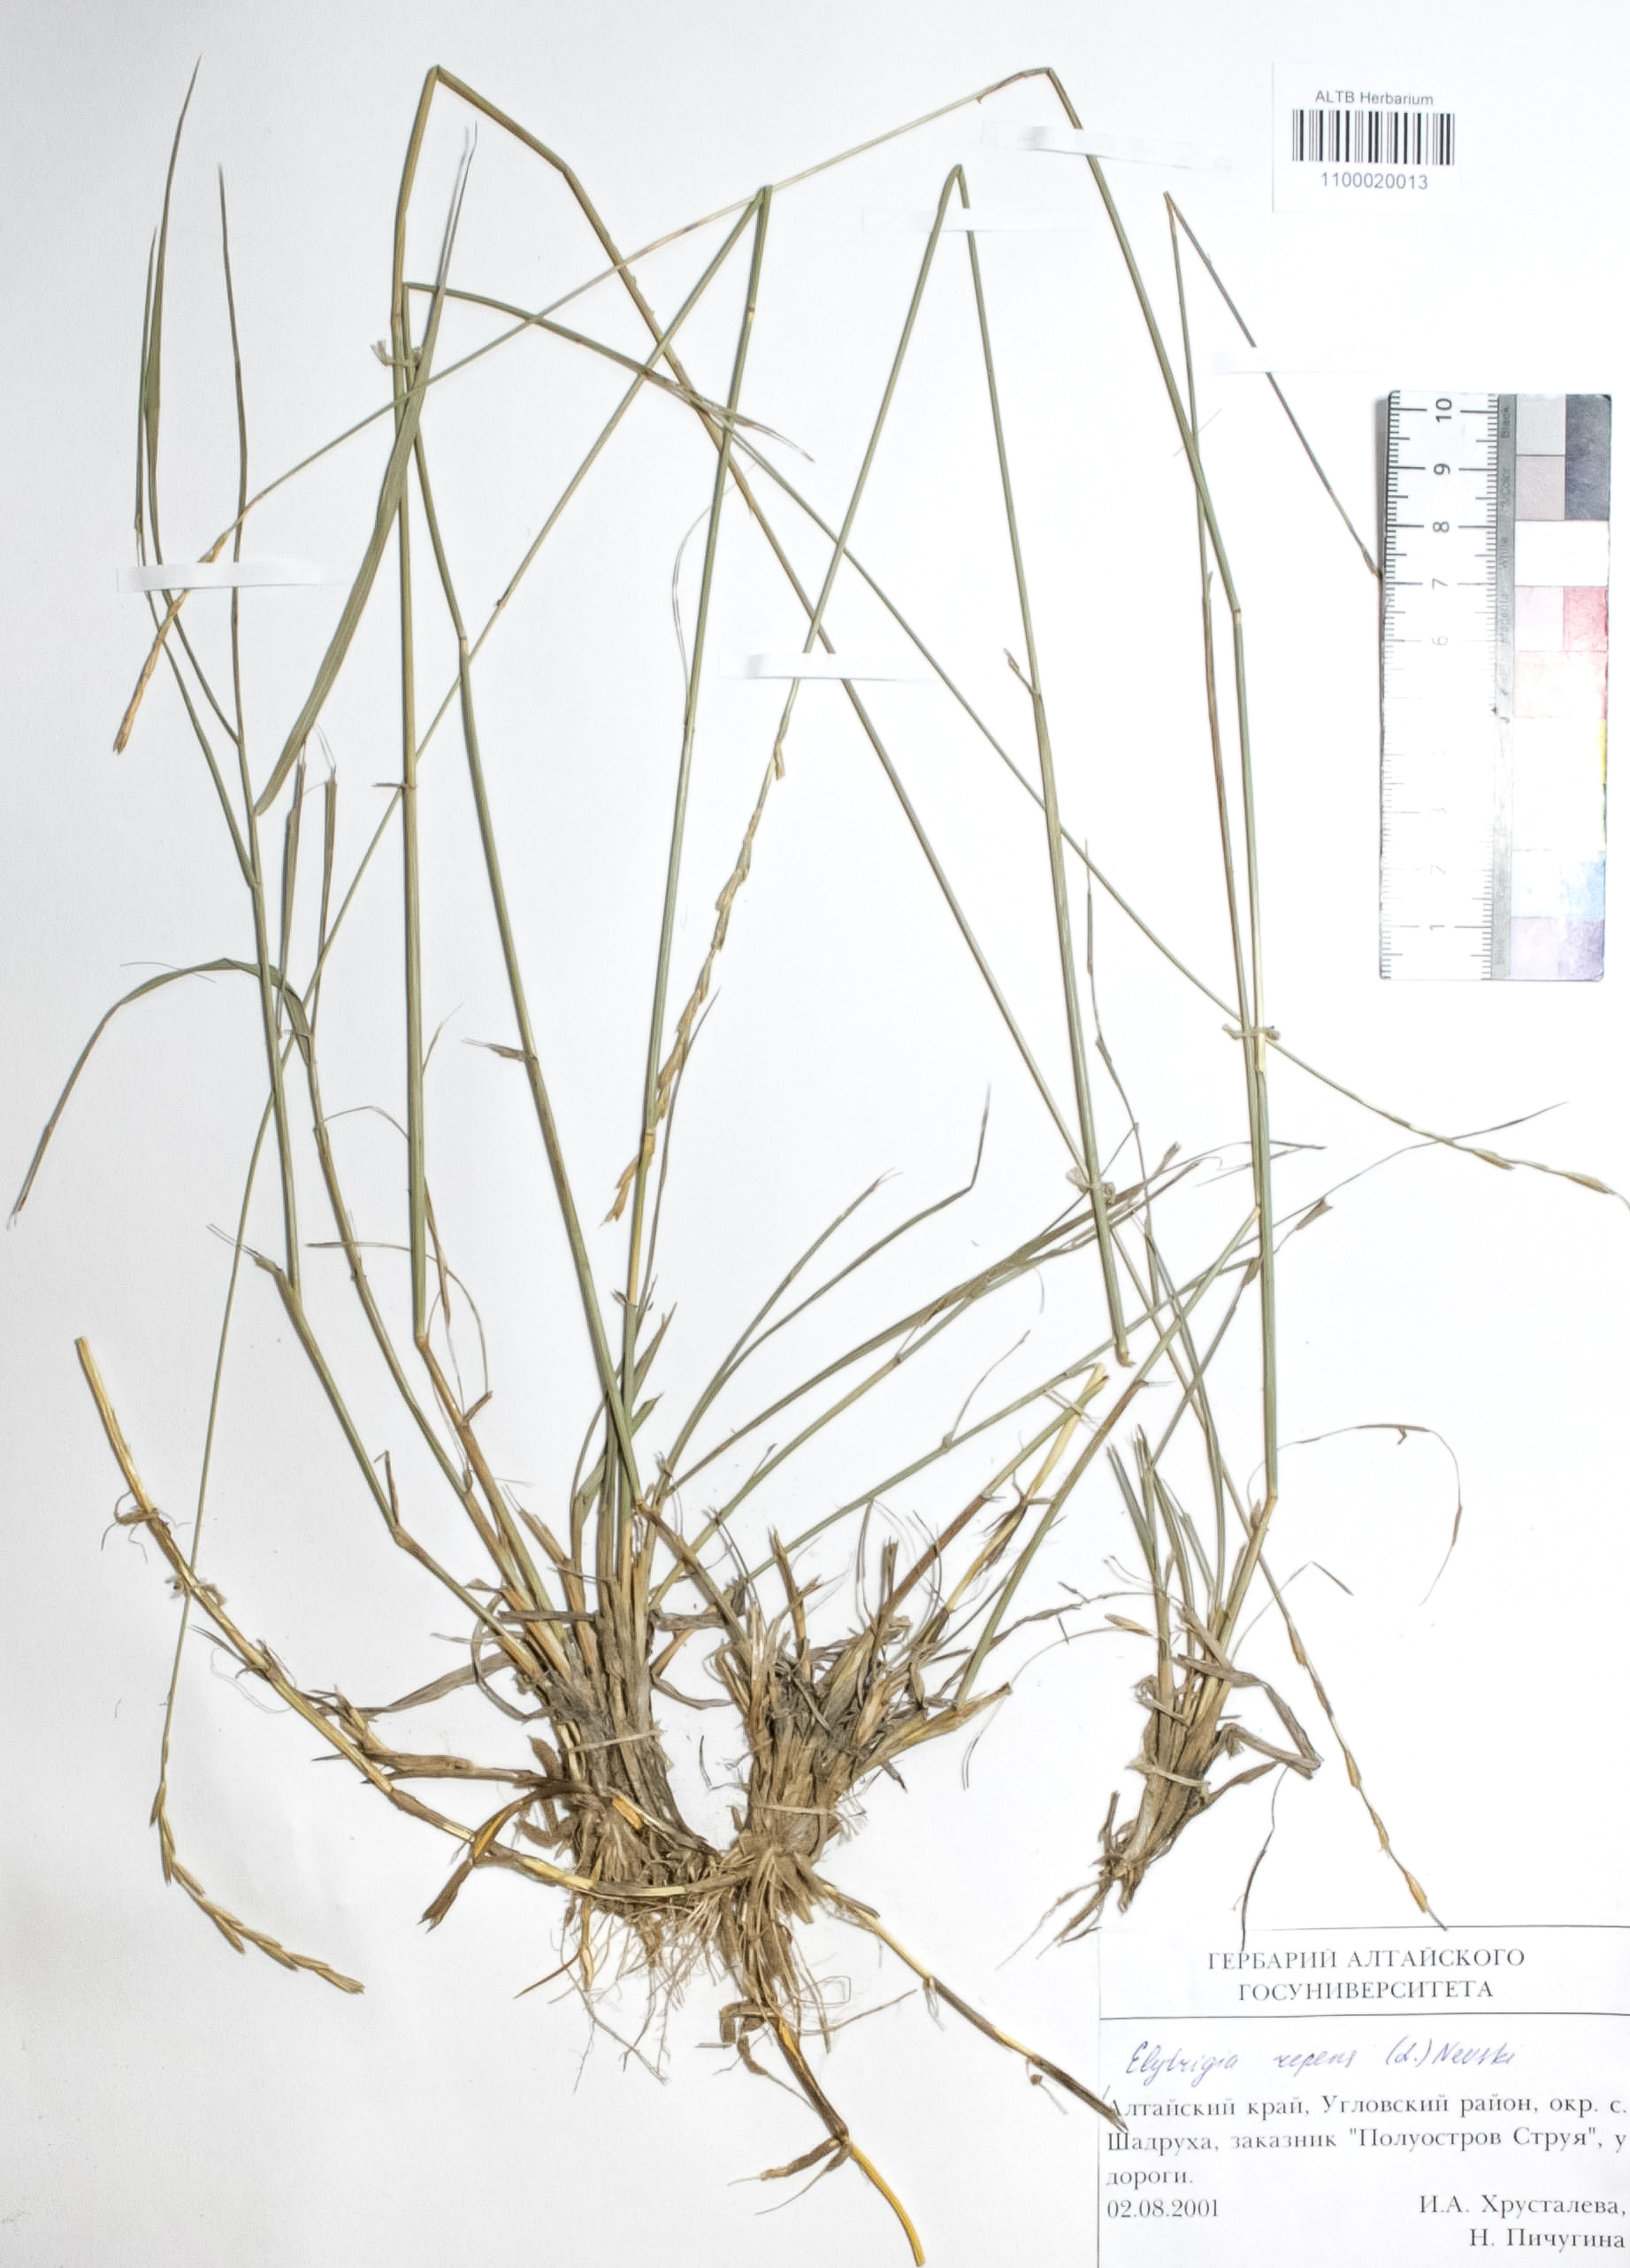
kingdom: Plantae
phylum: Tracheophyta
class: Liliopsida
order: Poales
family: Poaceae
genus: Elymus
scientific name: Elymus repens
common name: Quackgrass
